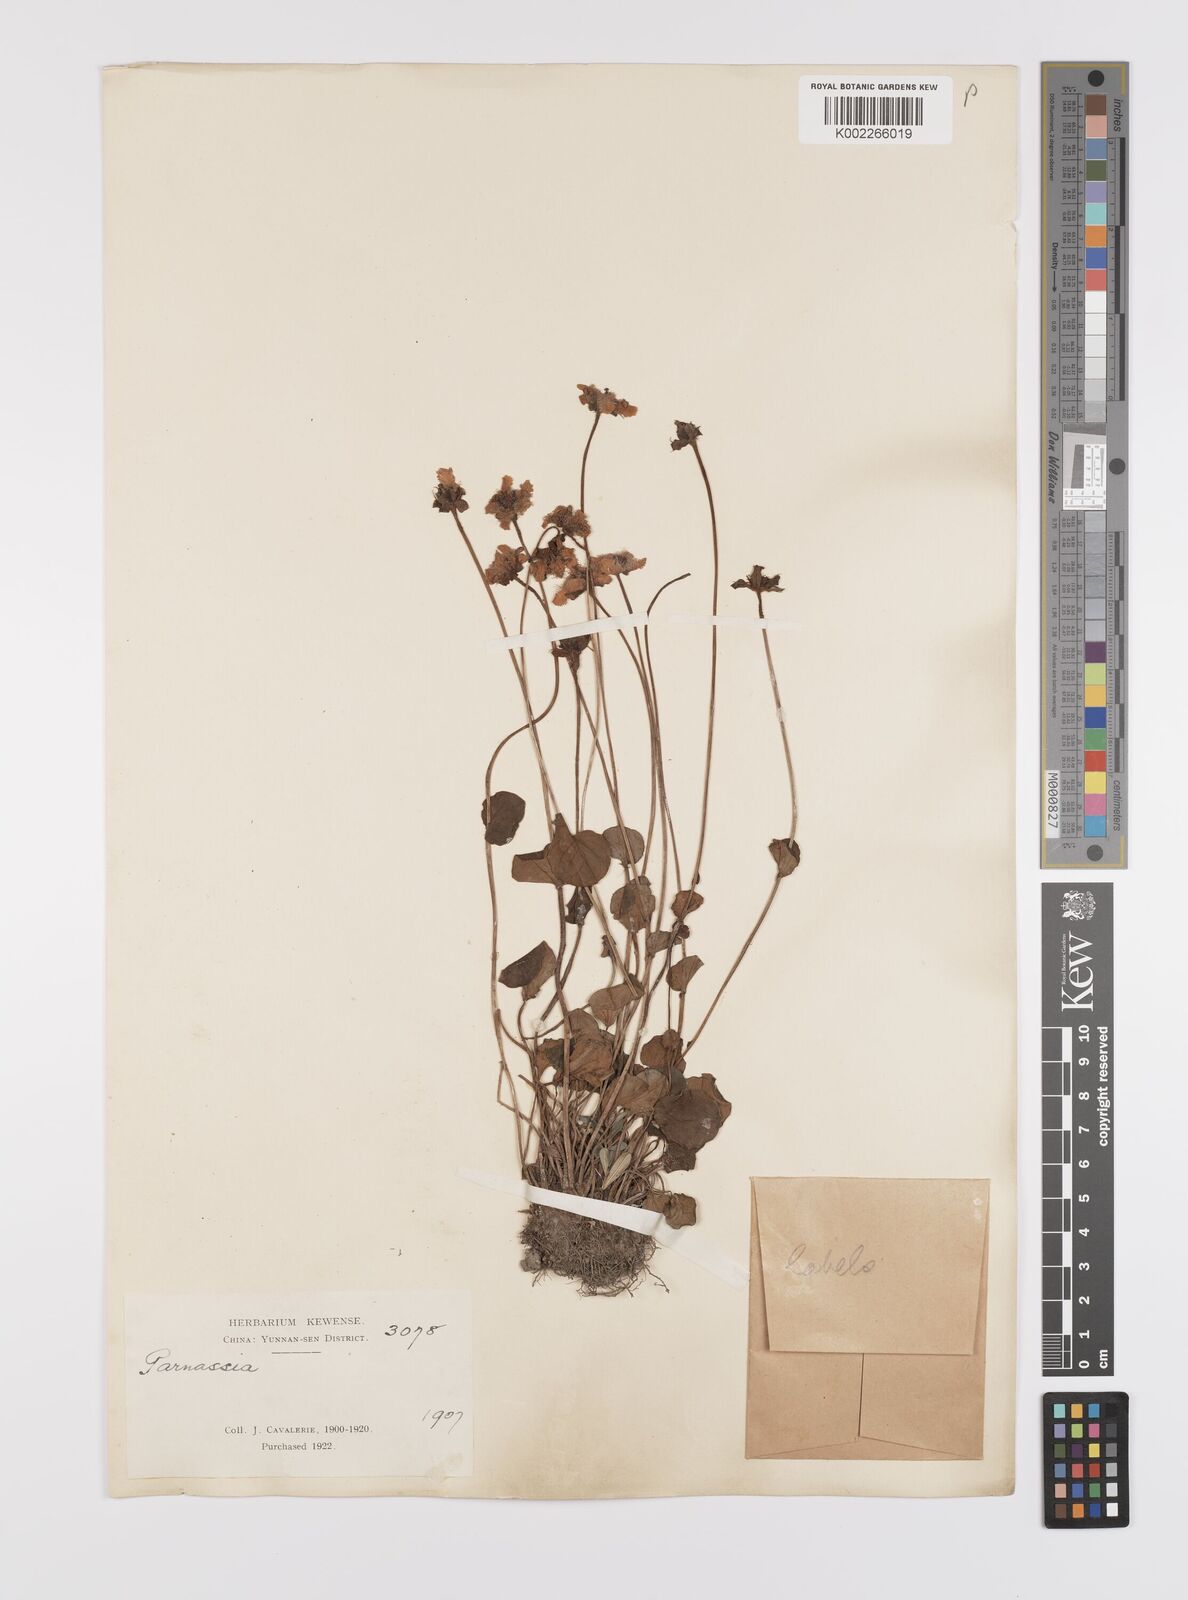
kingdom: Plantae
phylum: Tracheophyta
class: Magnoliopsida
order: Celastrales
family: Parnassiaceae
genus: Parnassia
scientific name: Parnassia wightiana
